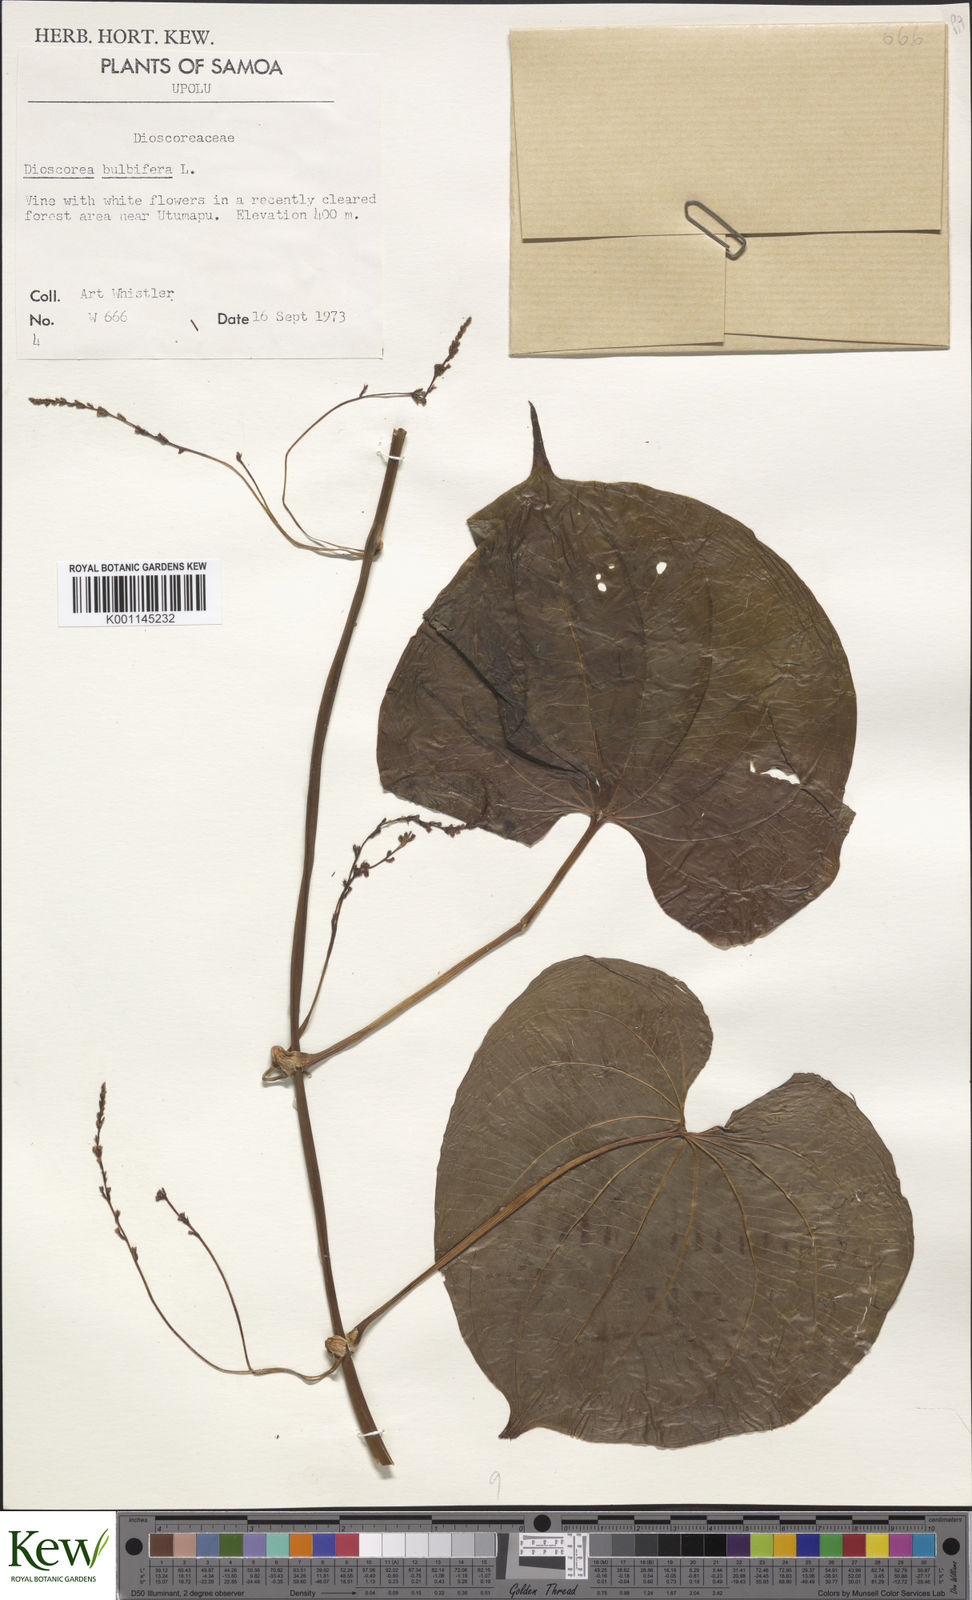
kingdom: Plantae
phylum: Tracheophyta
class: Liliopsida
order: Dioscoreales
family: Dioscoreaceae
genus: Dioscorea
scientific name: Dioscorea bulbifera
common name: Air yam
